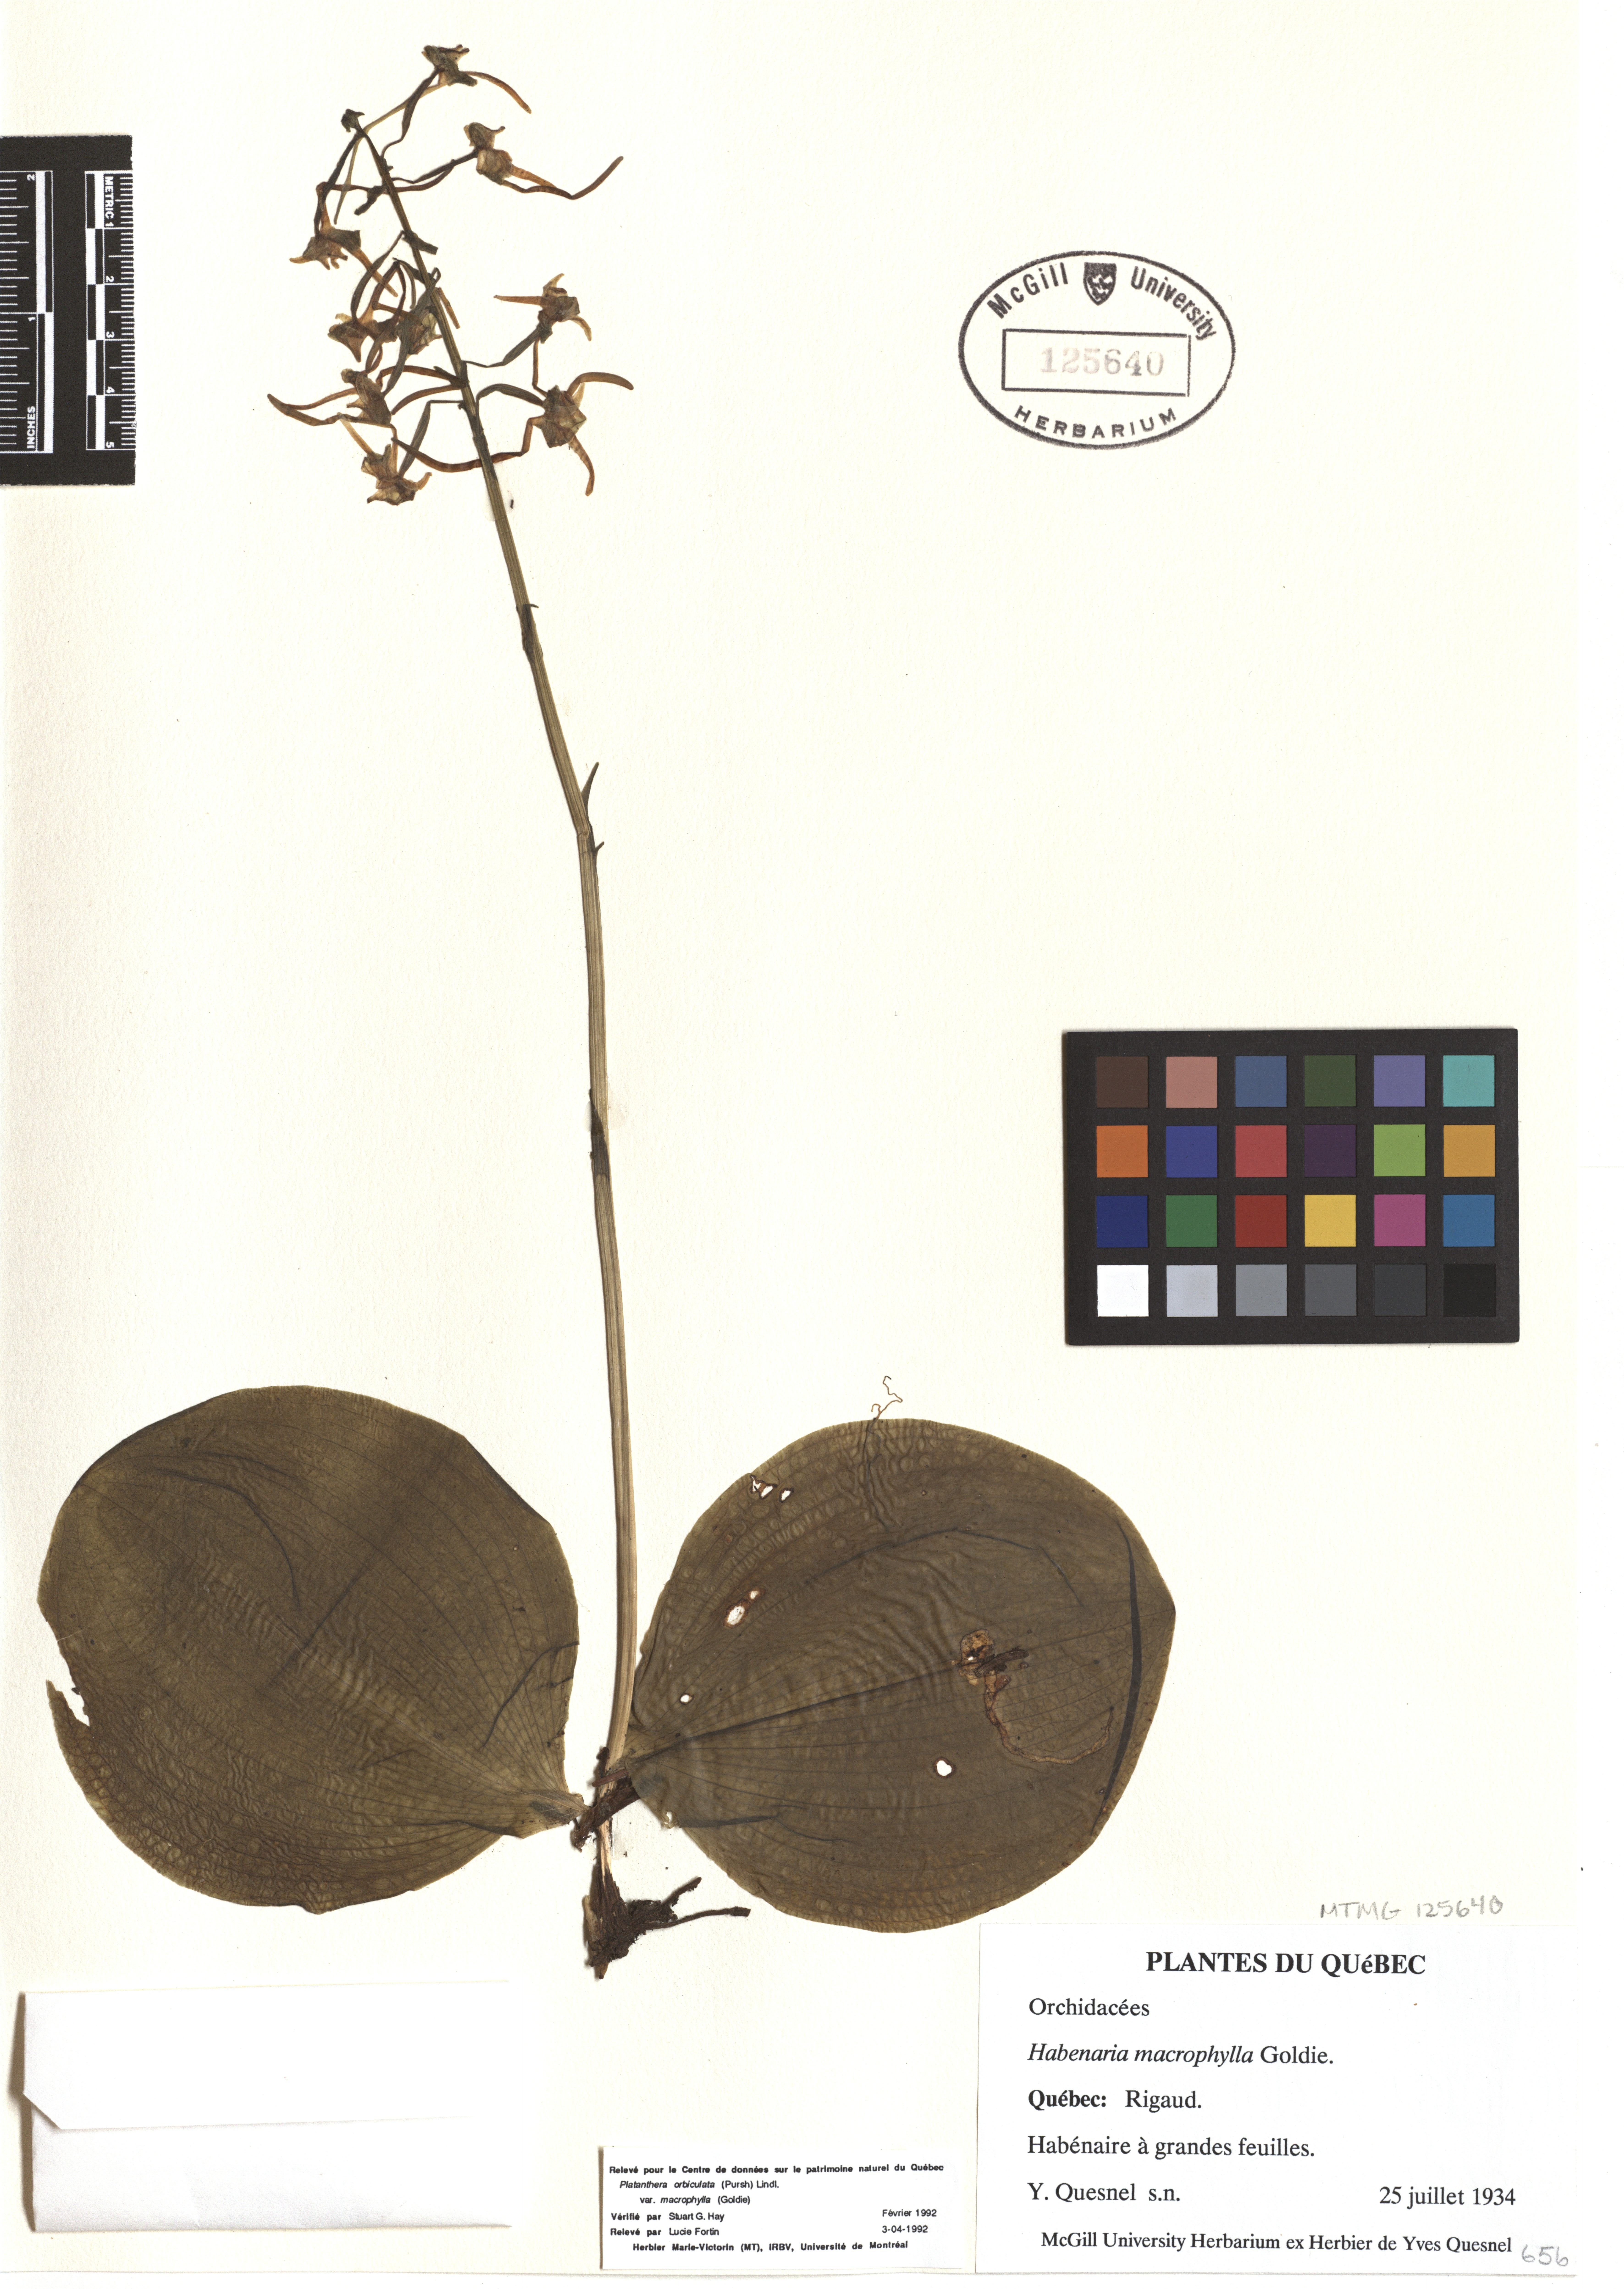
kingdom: Plantae
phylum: Tracheophyta
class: Liliopsida
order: Asparagales
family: Orchidaceae
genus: Platanthera
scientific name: Platanthera orbiculata
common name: Large round-leaved orchid
